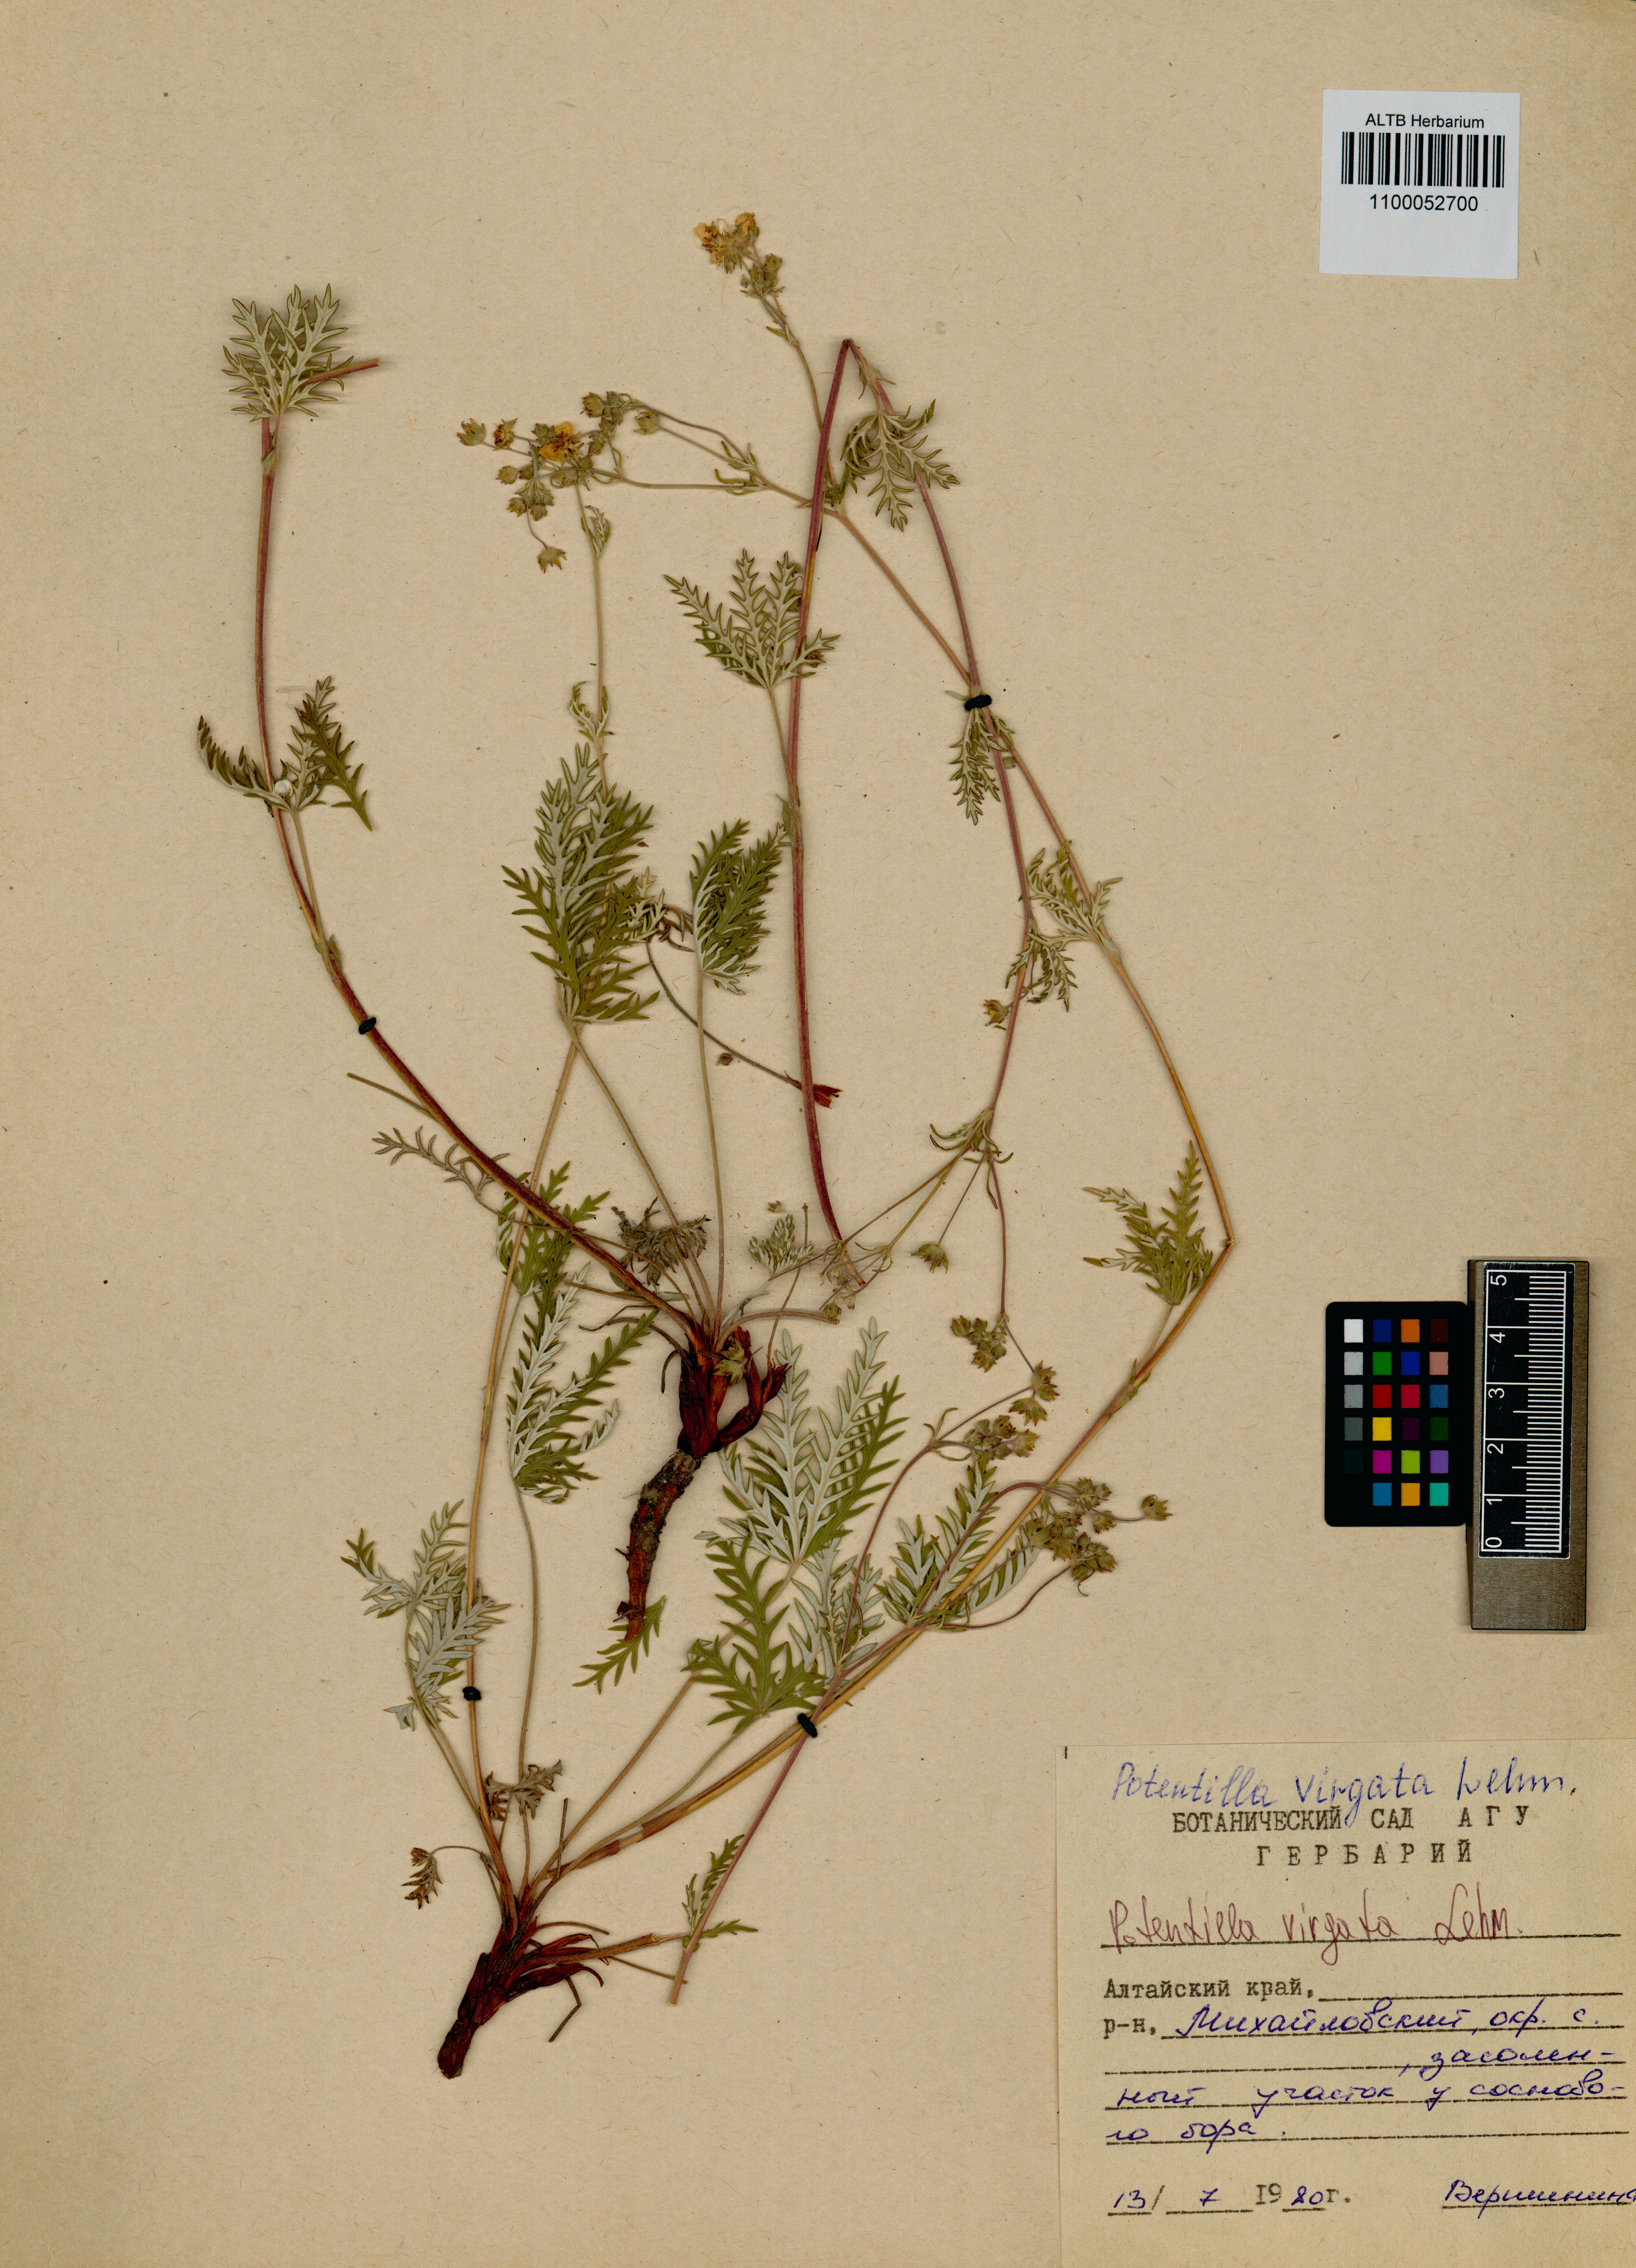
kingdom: Plantae
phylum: Tracheophyta
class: Magnoliopsida
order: Rosales
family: Rosaceae
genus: Potentilla
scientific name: Potentilla virgata
